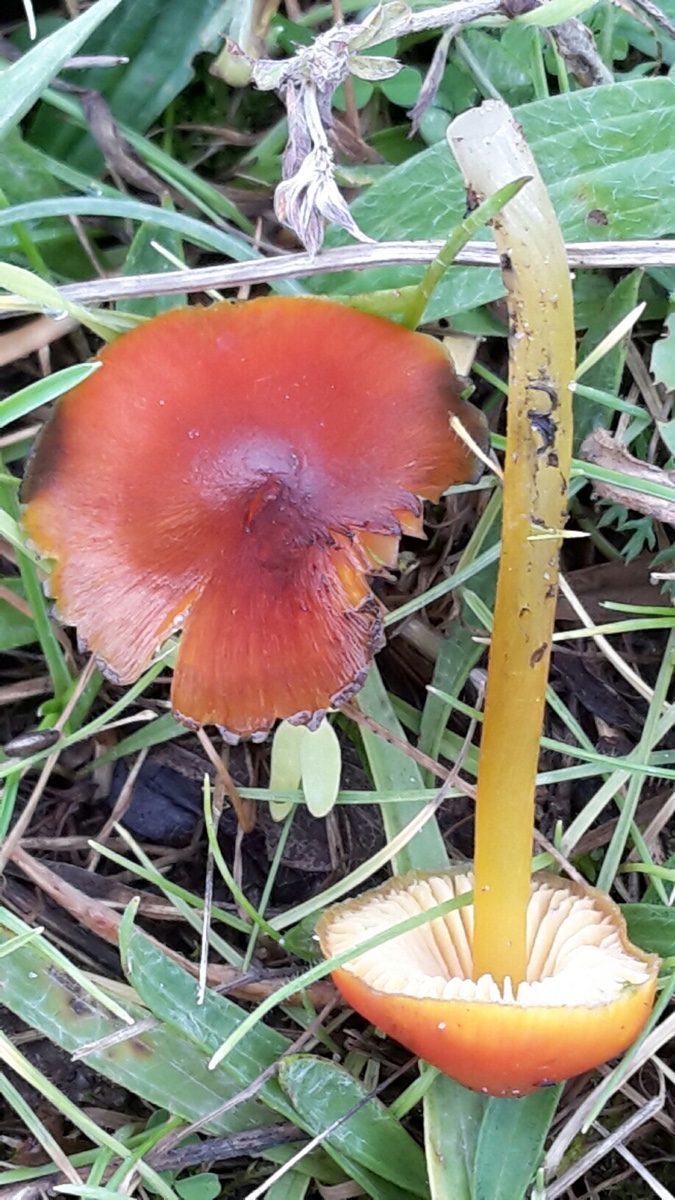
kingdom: Fungi
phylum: Basidiomycota
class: Agaricomycetes
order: Agaricales
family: Hygrophoraceae
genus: Hygrocybe
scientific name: Hygrocybe conica
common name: kegle-vokshat
